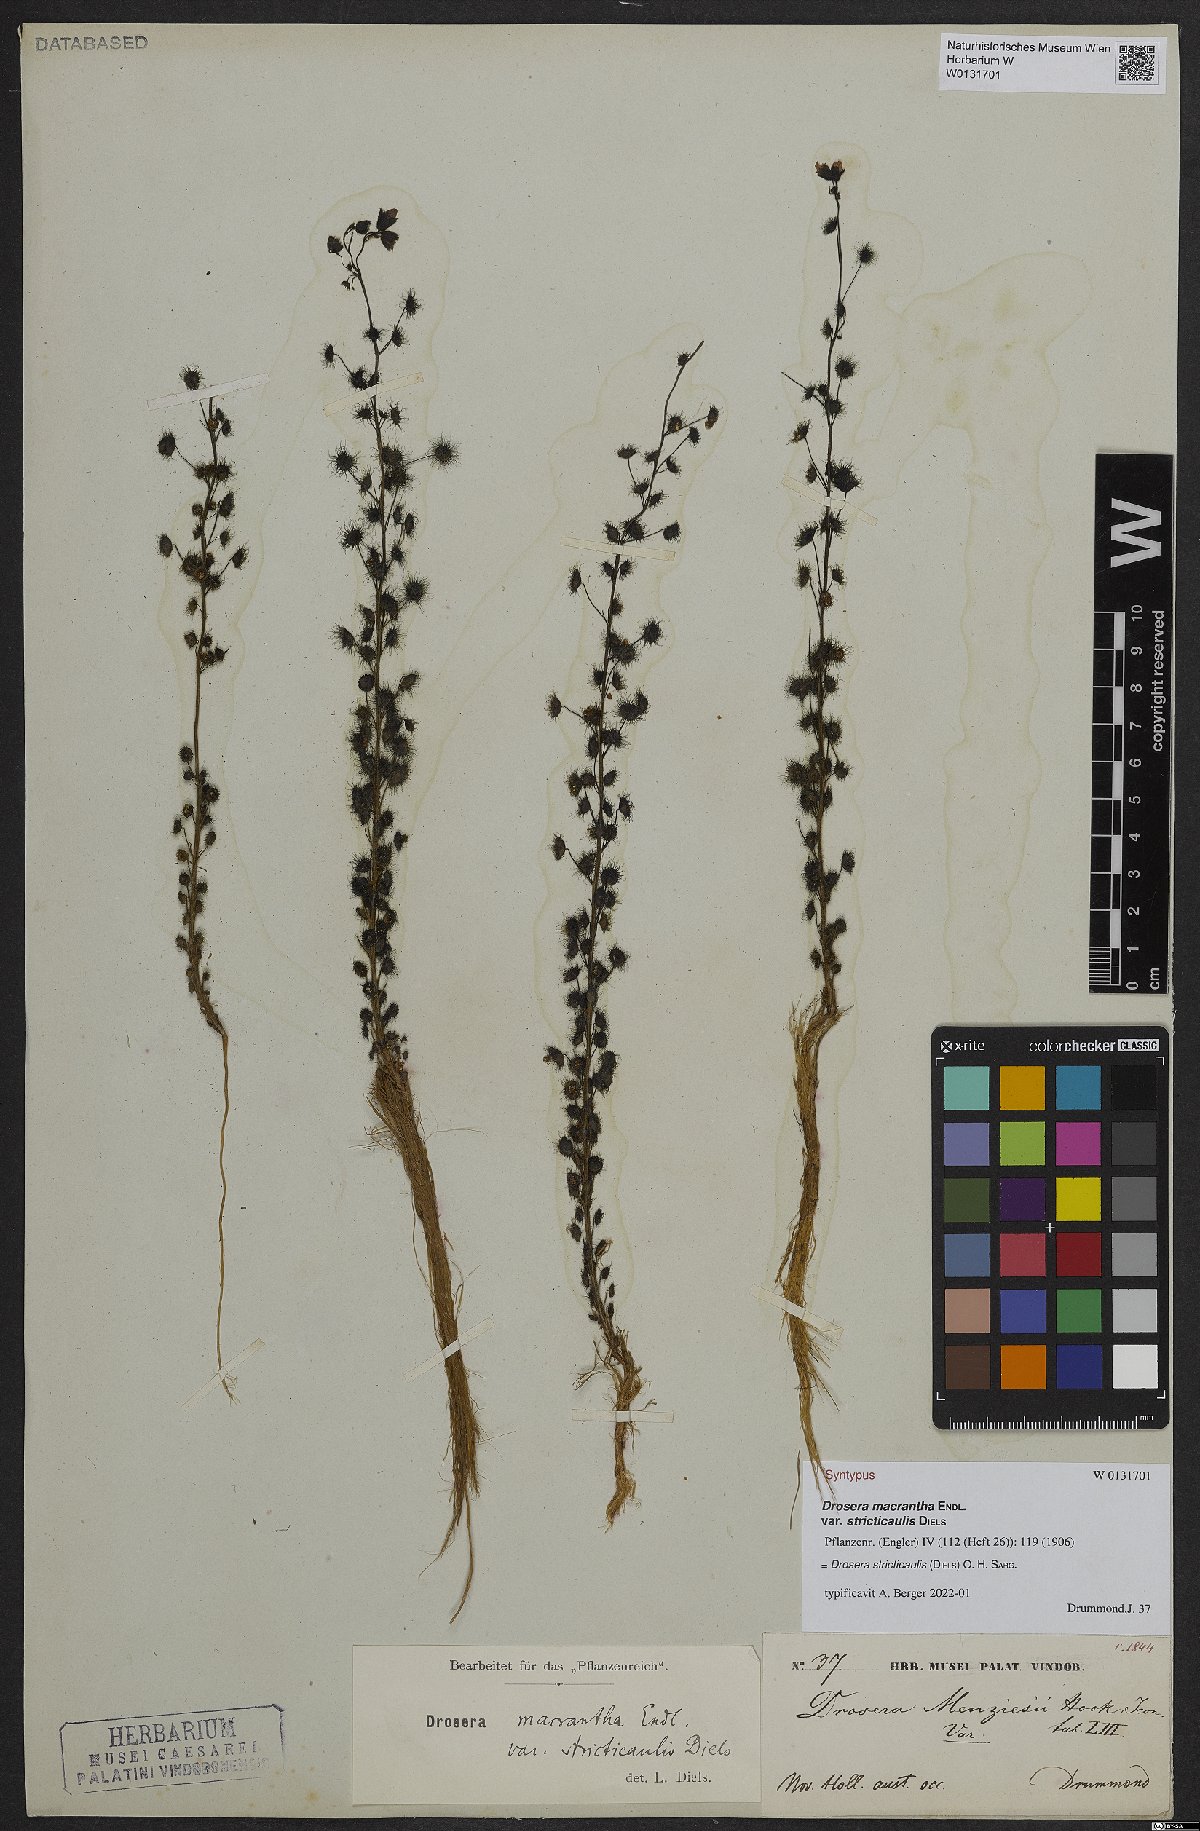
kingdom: Plantae
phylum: Tracheophyta
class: Magnoliopsida
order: Caryophyllales
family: Droseraceae
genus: Drosera
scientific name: Drosera stricticaulis
